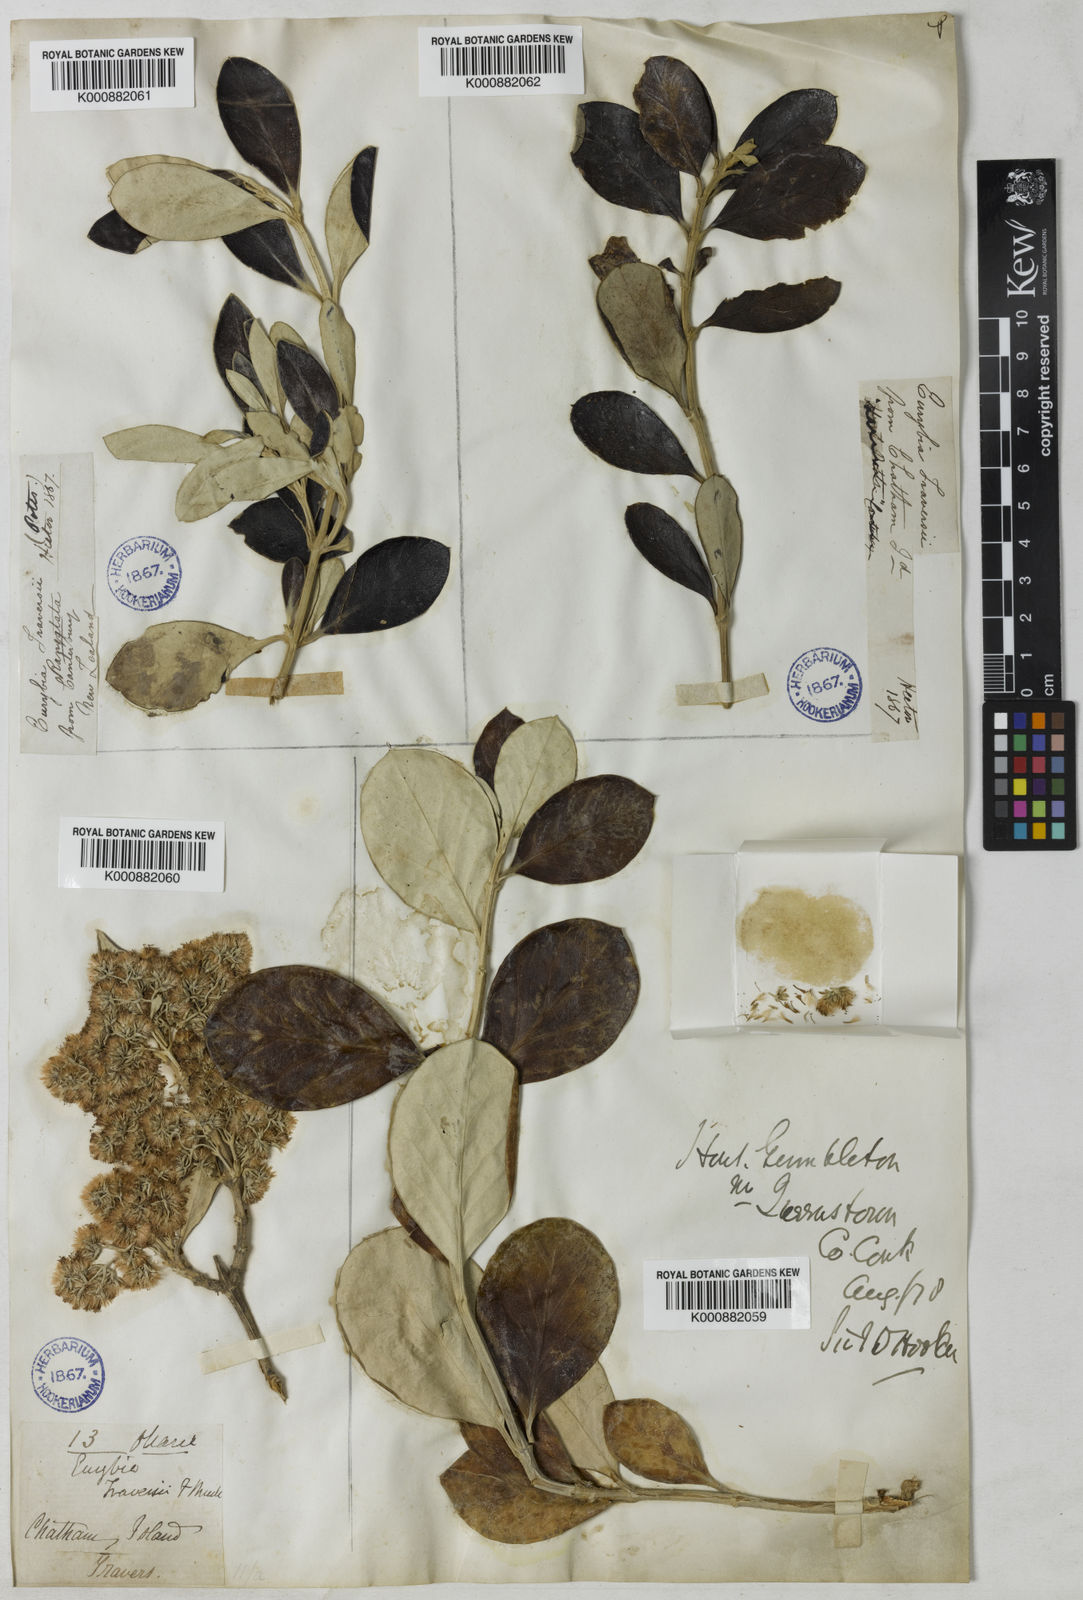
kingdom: Plantae
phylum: Tracheophyta
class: Magnoliopsida
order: Asterales
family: Asteraceae
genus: Olearia
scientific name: Olearia
